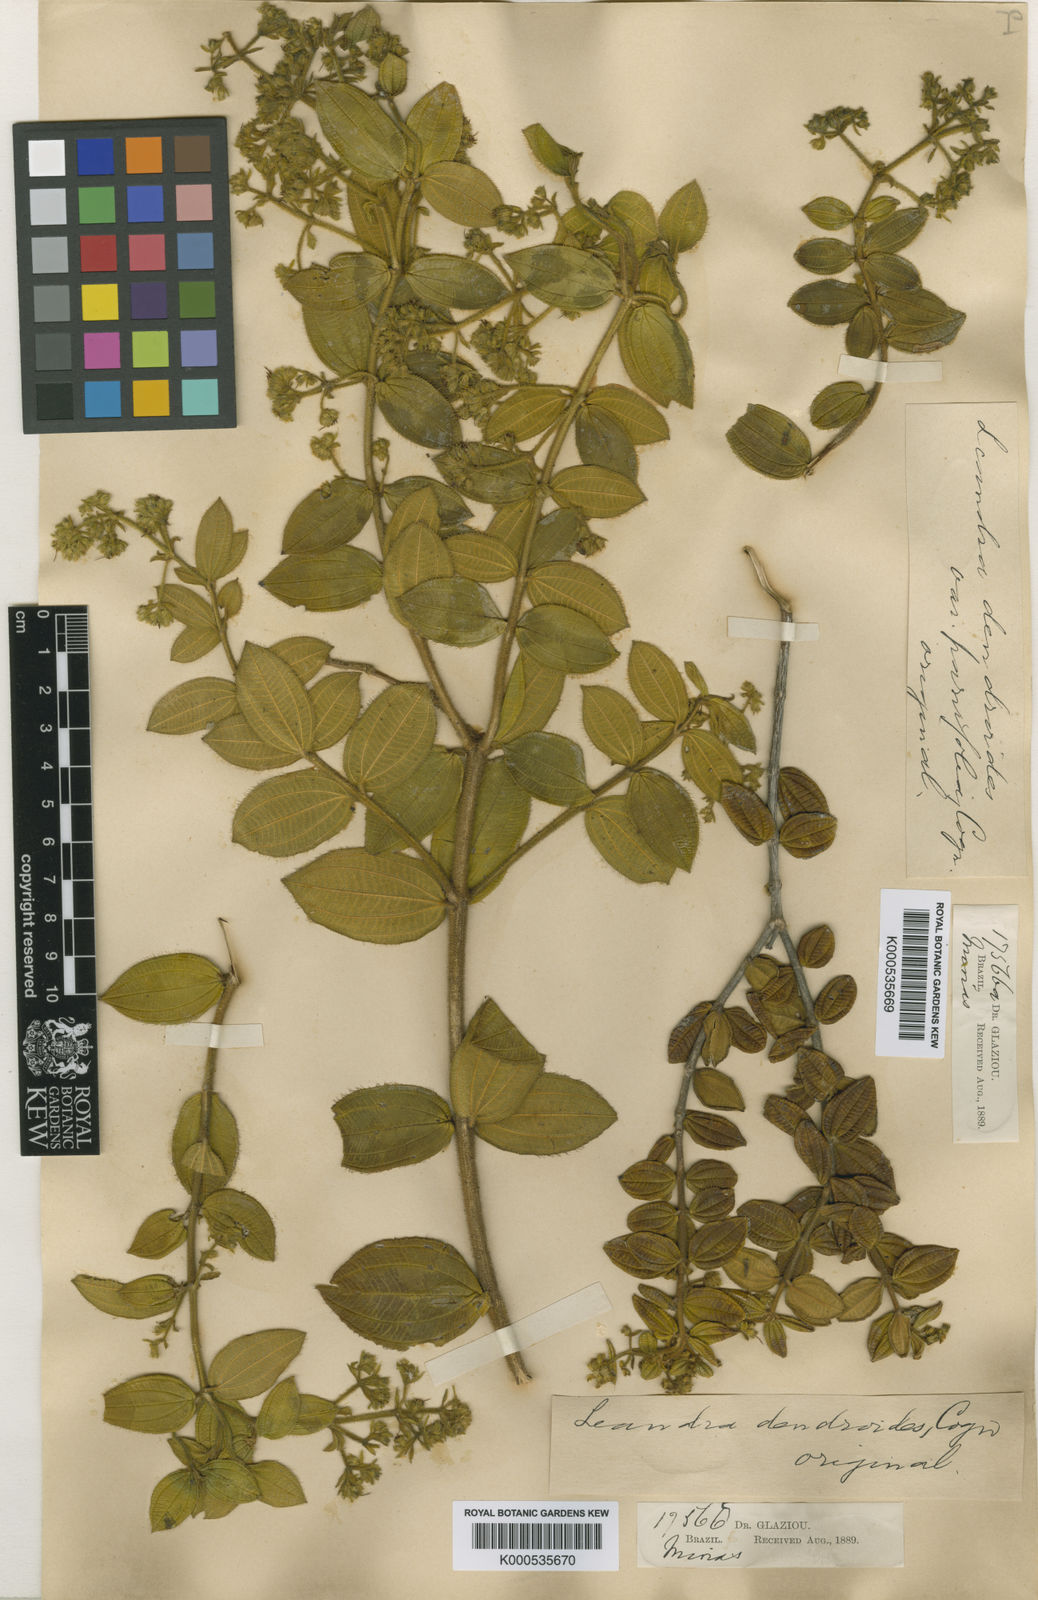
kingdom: Plantae
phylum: Tracheophyta
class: Magnoliopsida
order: Myrtales
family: Melastomataceae
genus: Miconia
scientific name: Miconia dendroides
